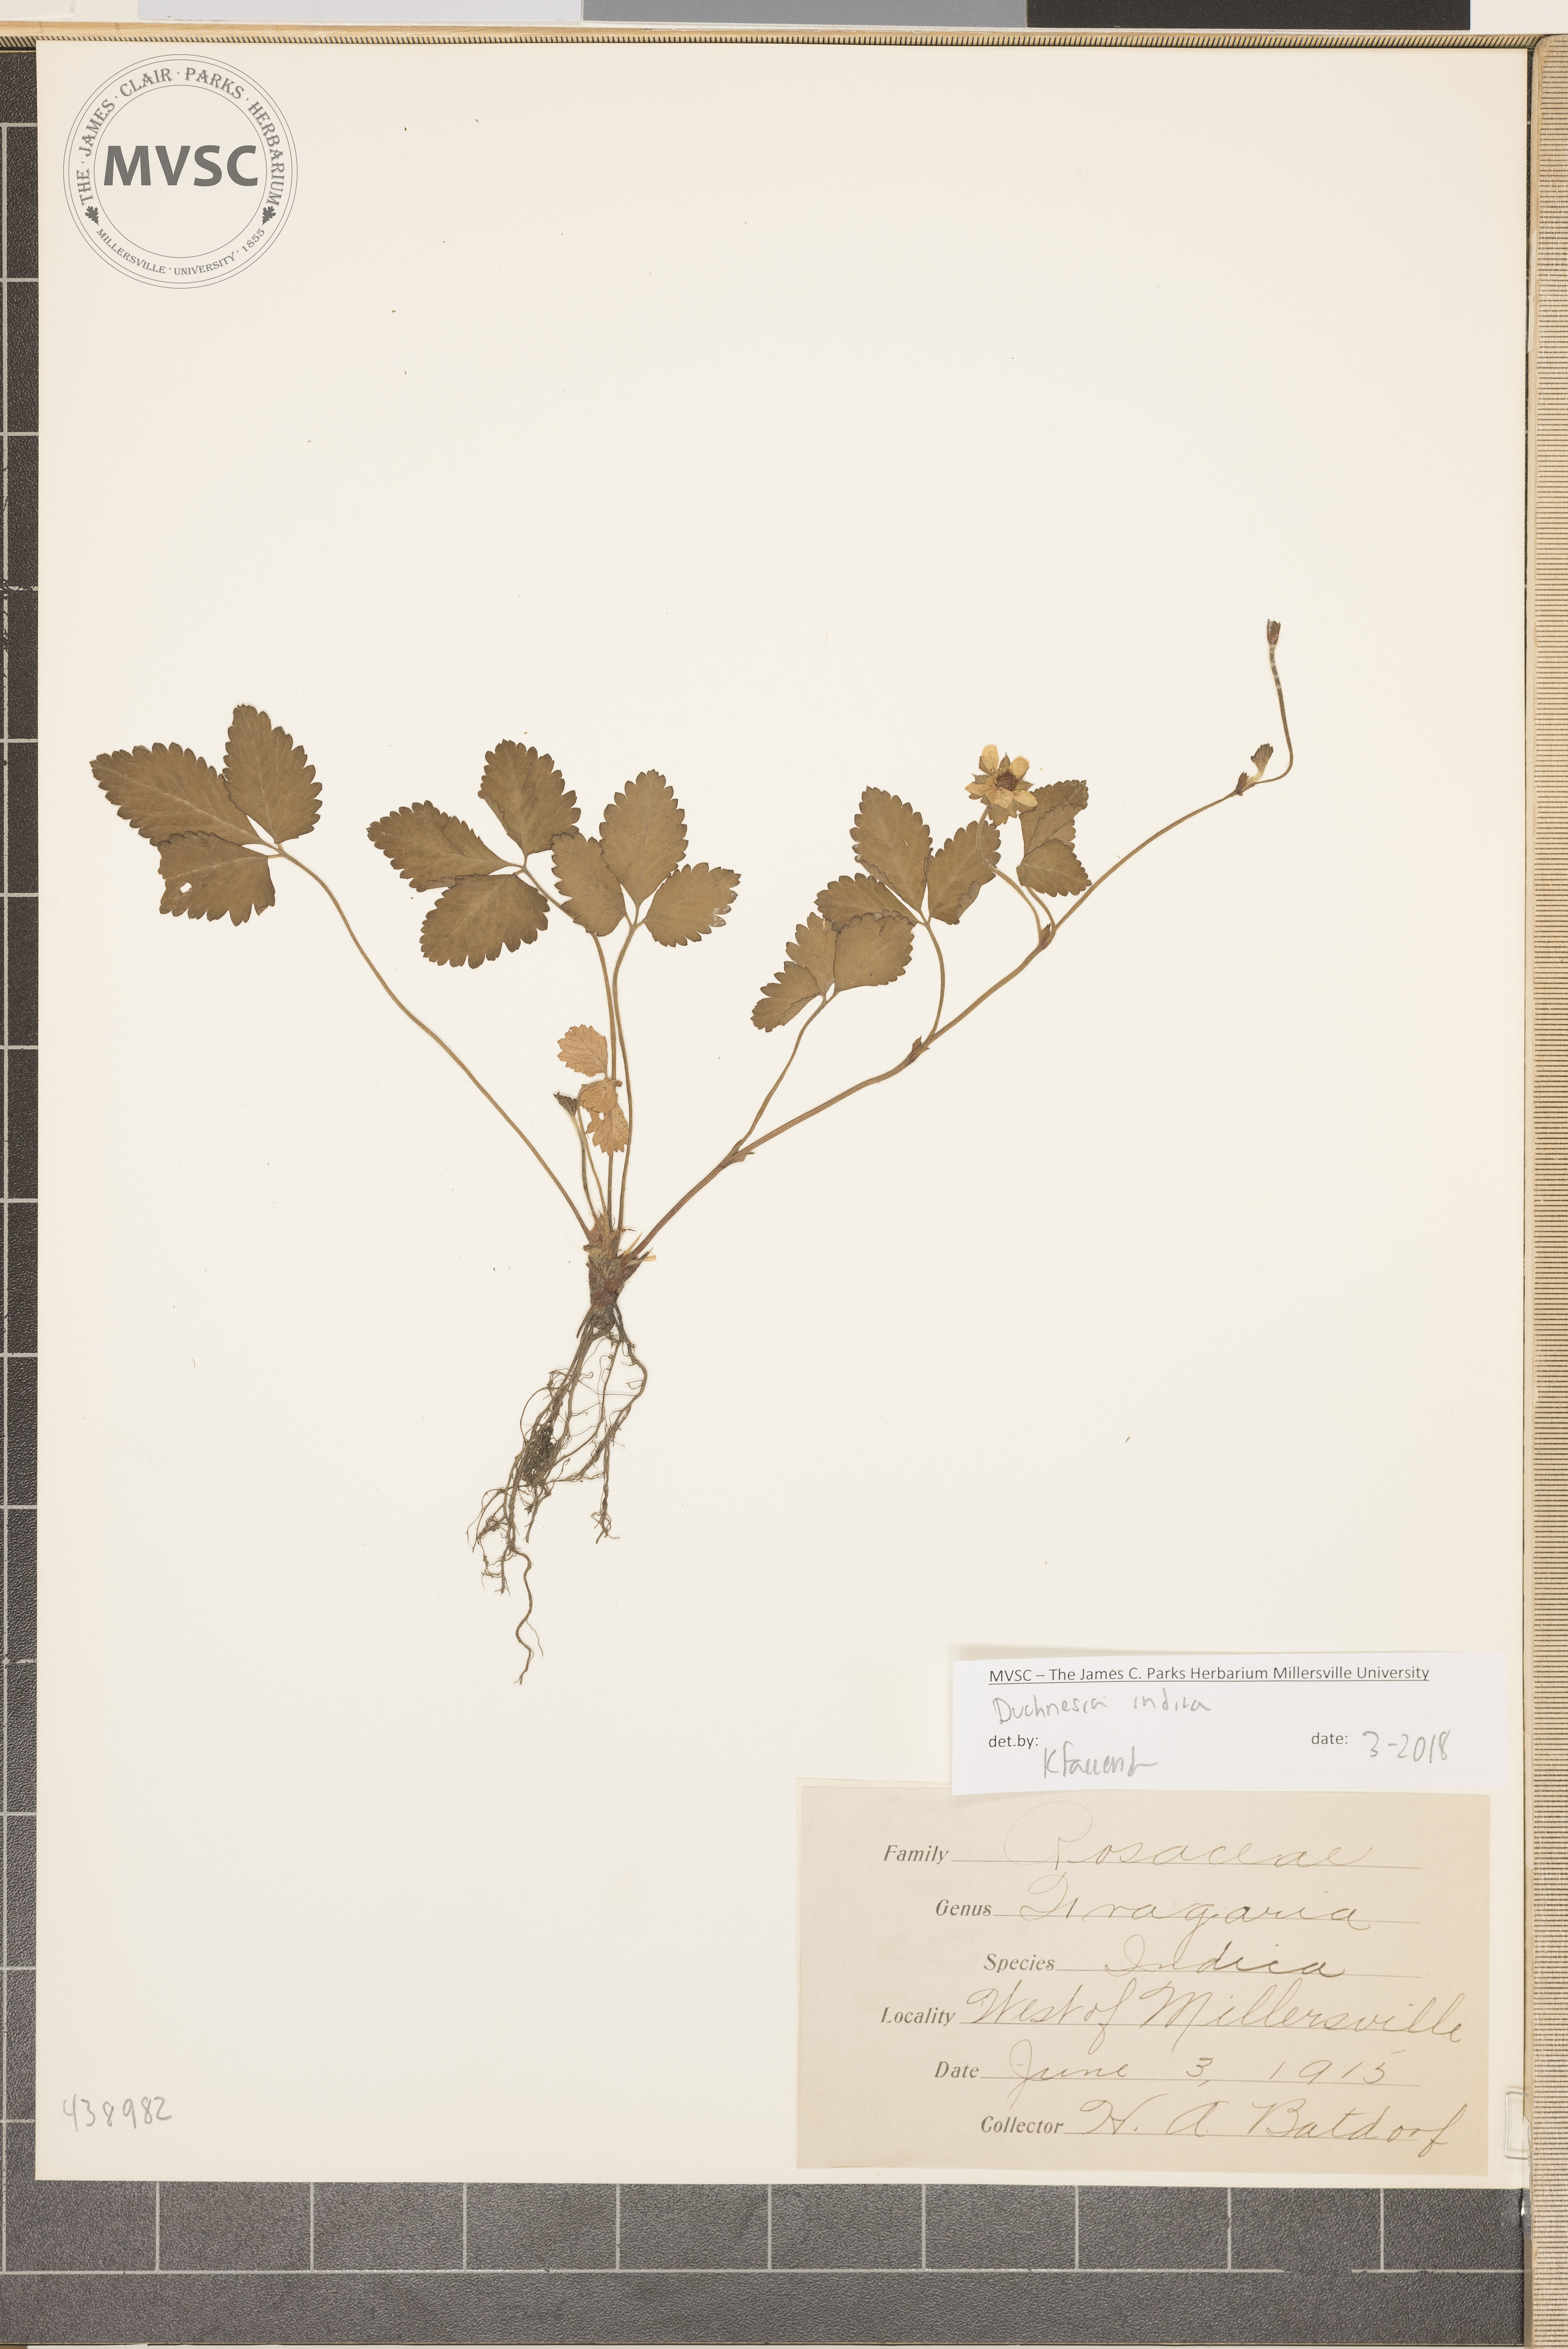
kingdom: Plantae
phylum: Tracheophyta
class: Magnoliopsida
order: Rosales
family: Rosaceae
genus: Potentilla
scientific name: Potentilla indica
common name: Yellow-flowered strawberry
